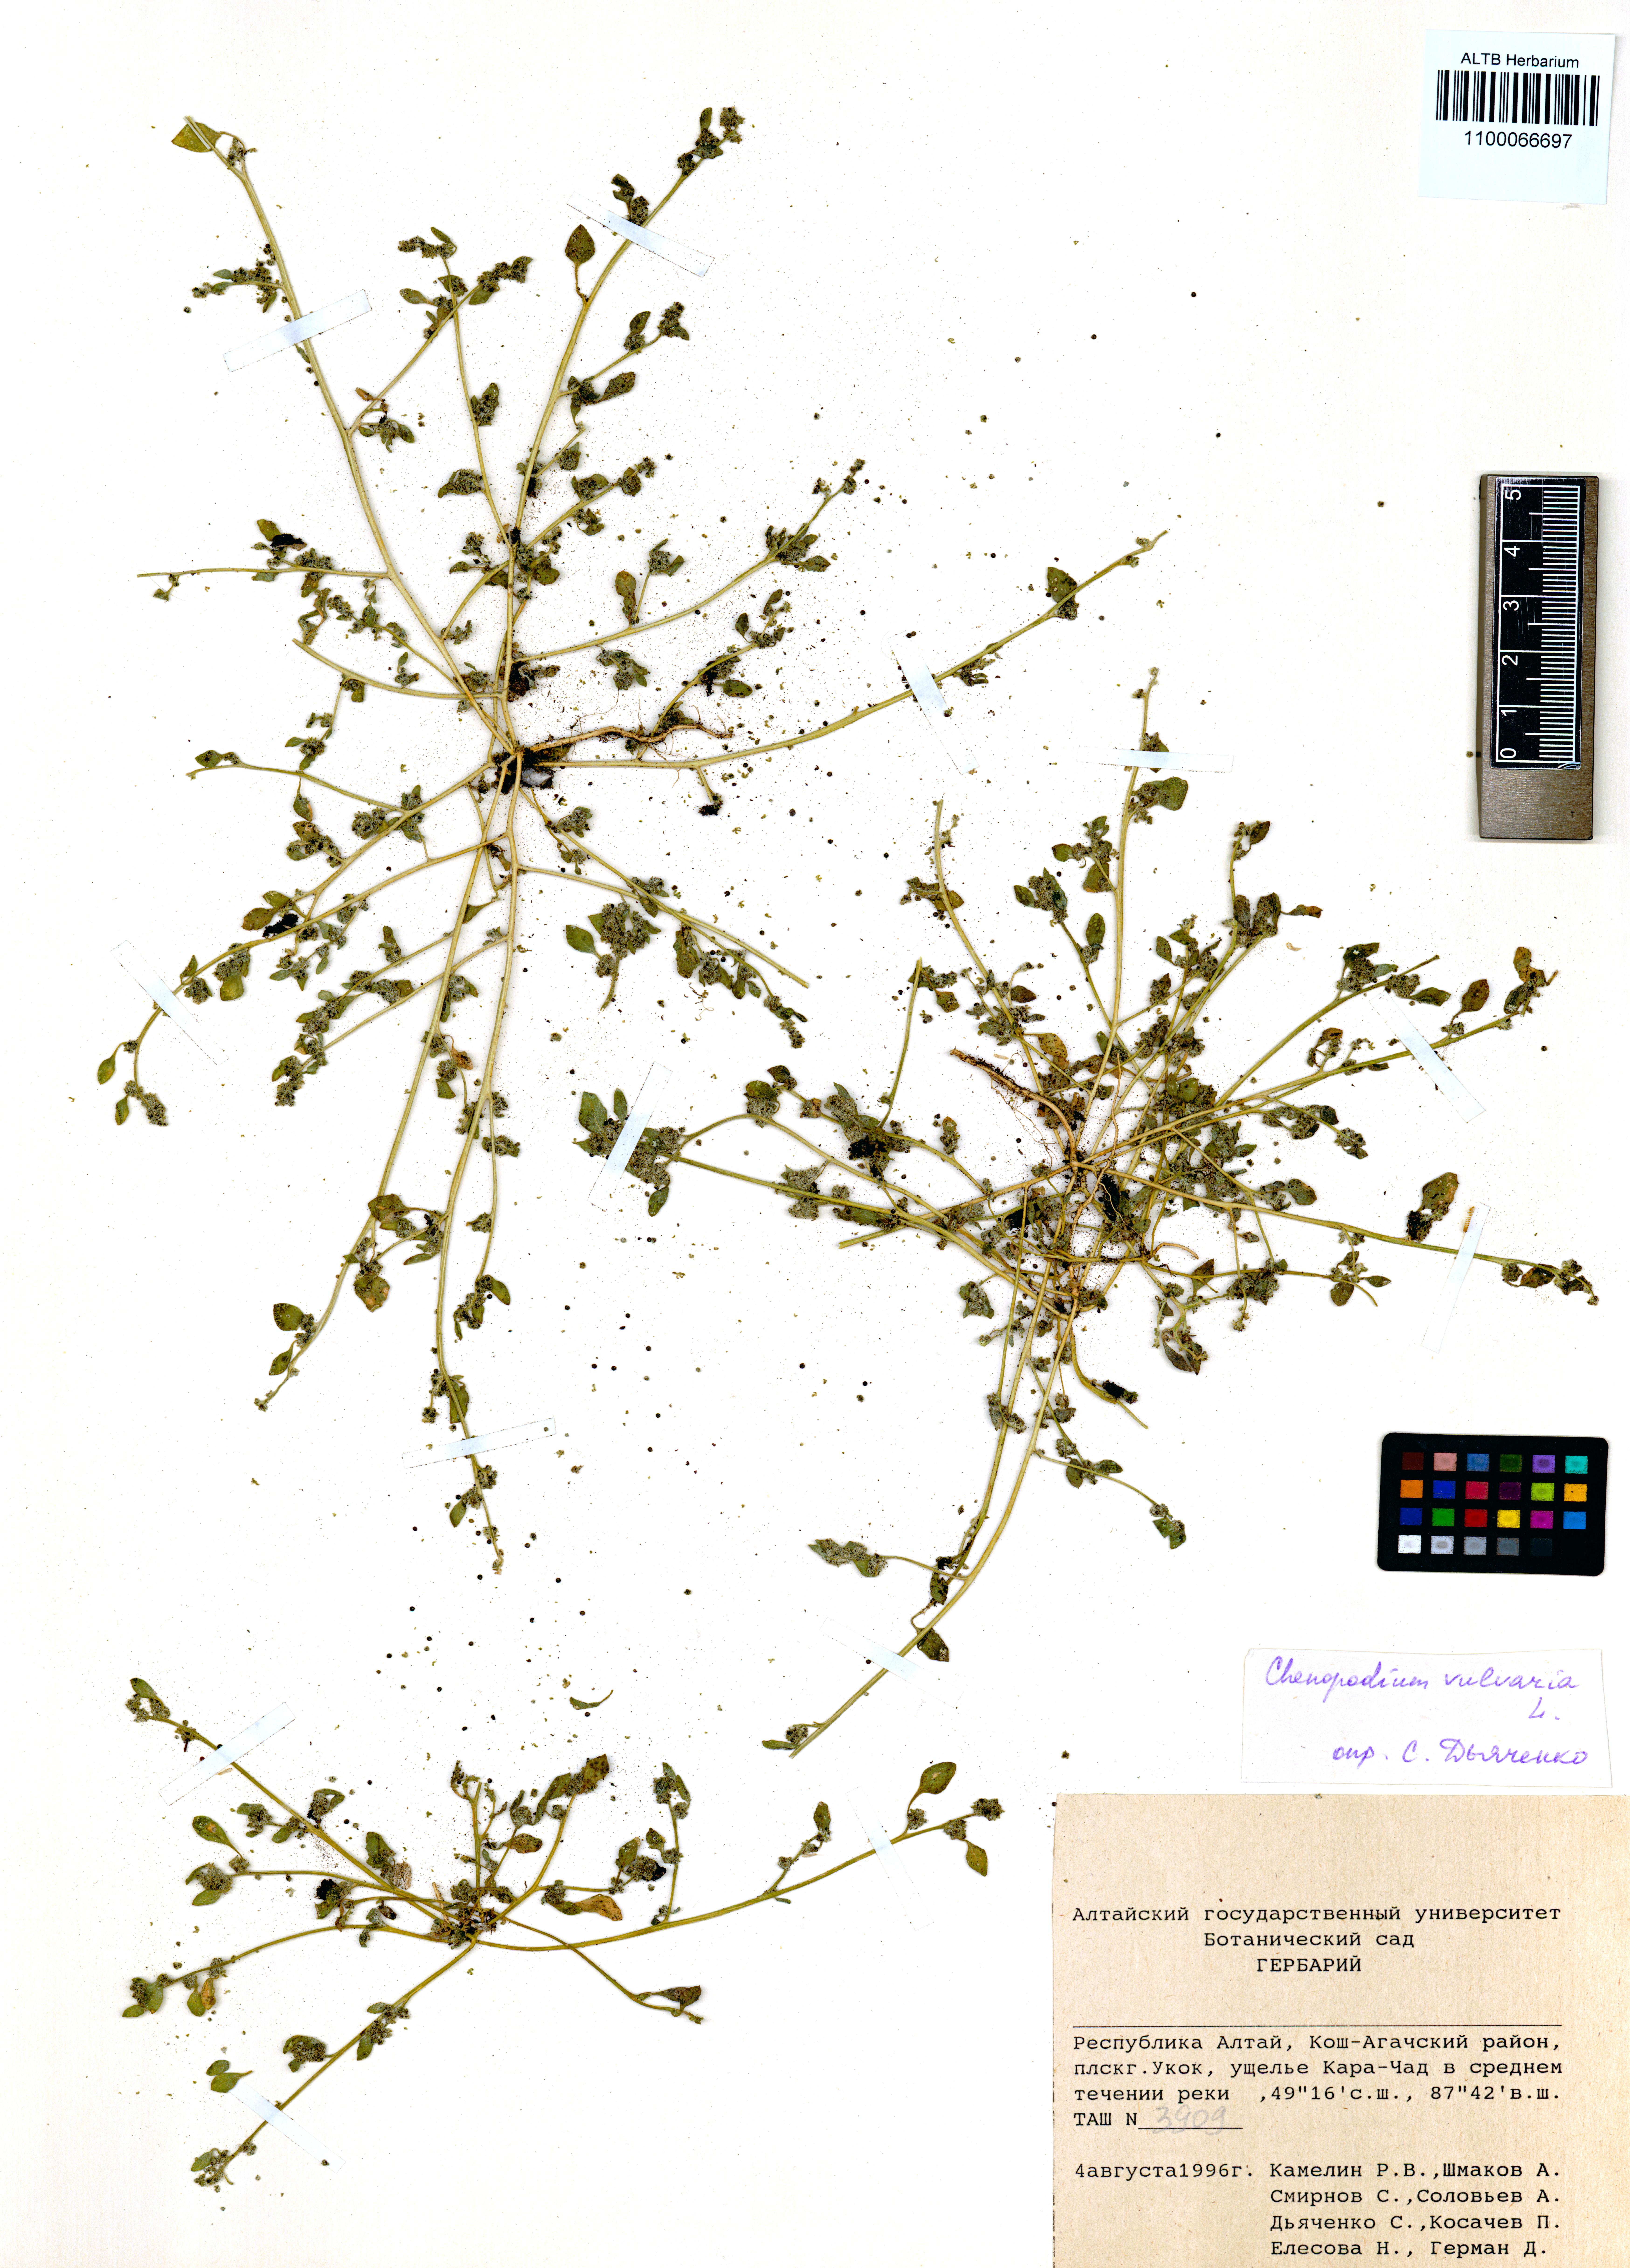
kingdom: Plantae
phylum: Tracheophyta
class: Magnoliopsida
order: Caryophyllales
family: Amaranthaceae
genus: Chenopodium
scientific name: Chenopodium vulvaria
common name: Stinking goosefoot
